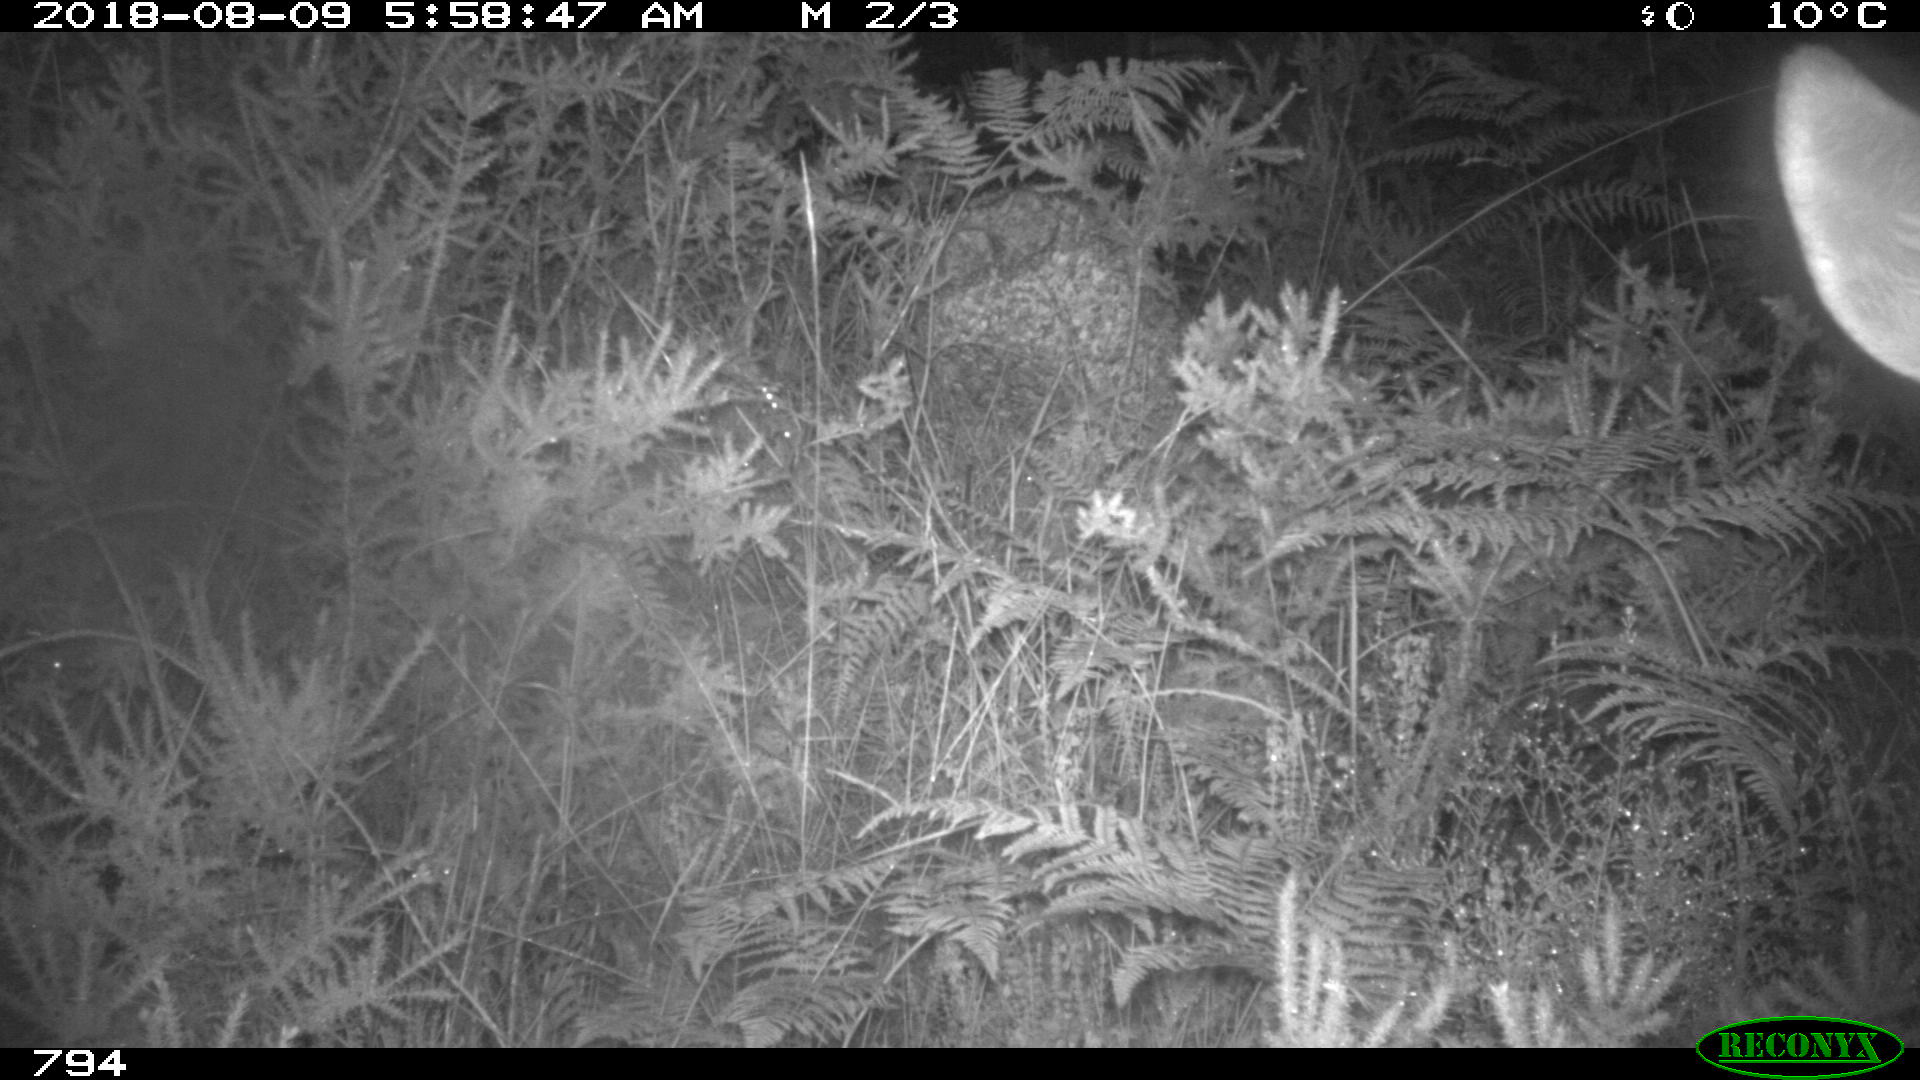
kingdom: Animalia
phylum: Chordata
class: Mammalia
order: Artiodactyla
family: Cervidae
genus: Capreolus
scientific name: Capreolus capreolus
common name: Western roe deer
